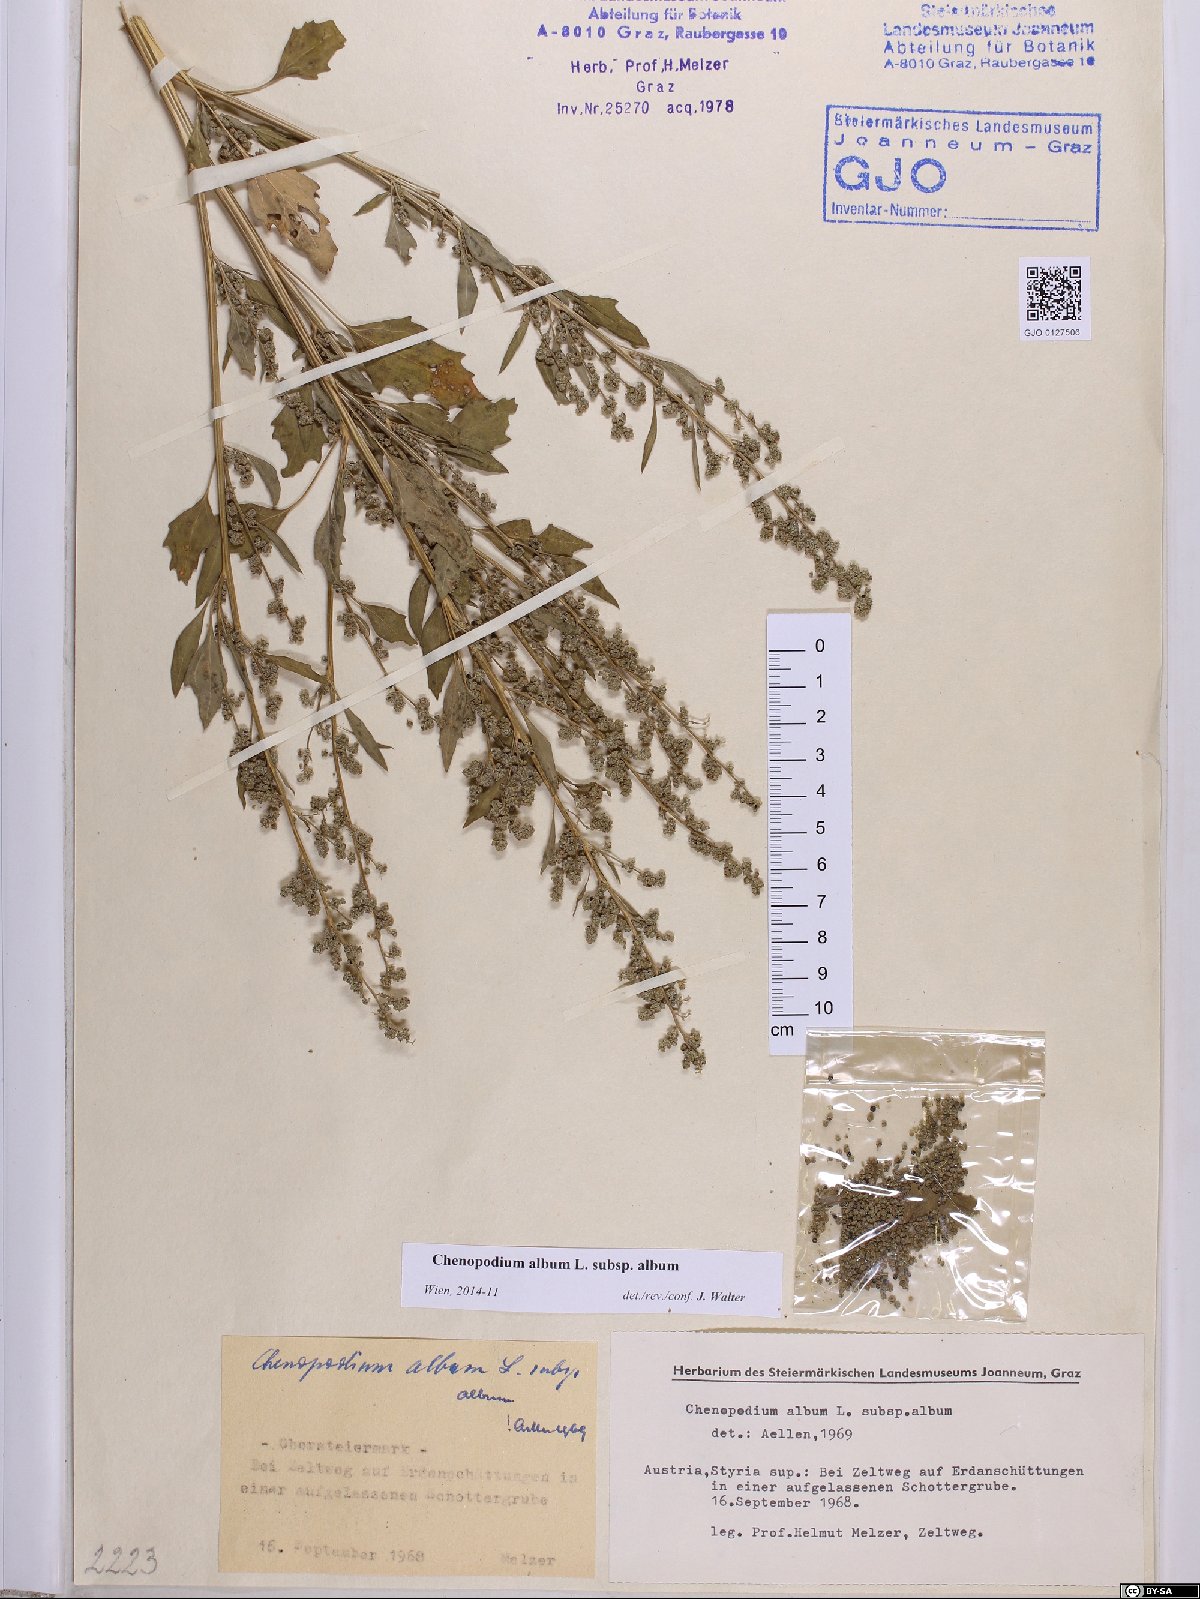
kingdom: Plantae
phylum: Tracheophyta
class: Magnoliopsida
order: Caryophyllales
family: Amaranthaceae
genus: Chenopodium
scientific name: Chenopodium album
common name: Fat-hen
